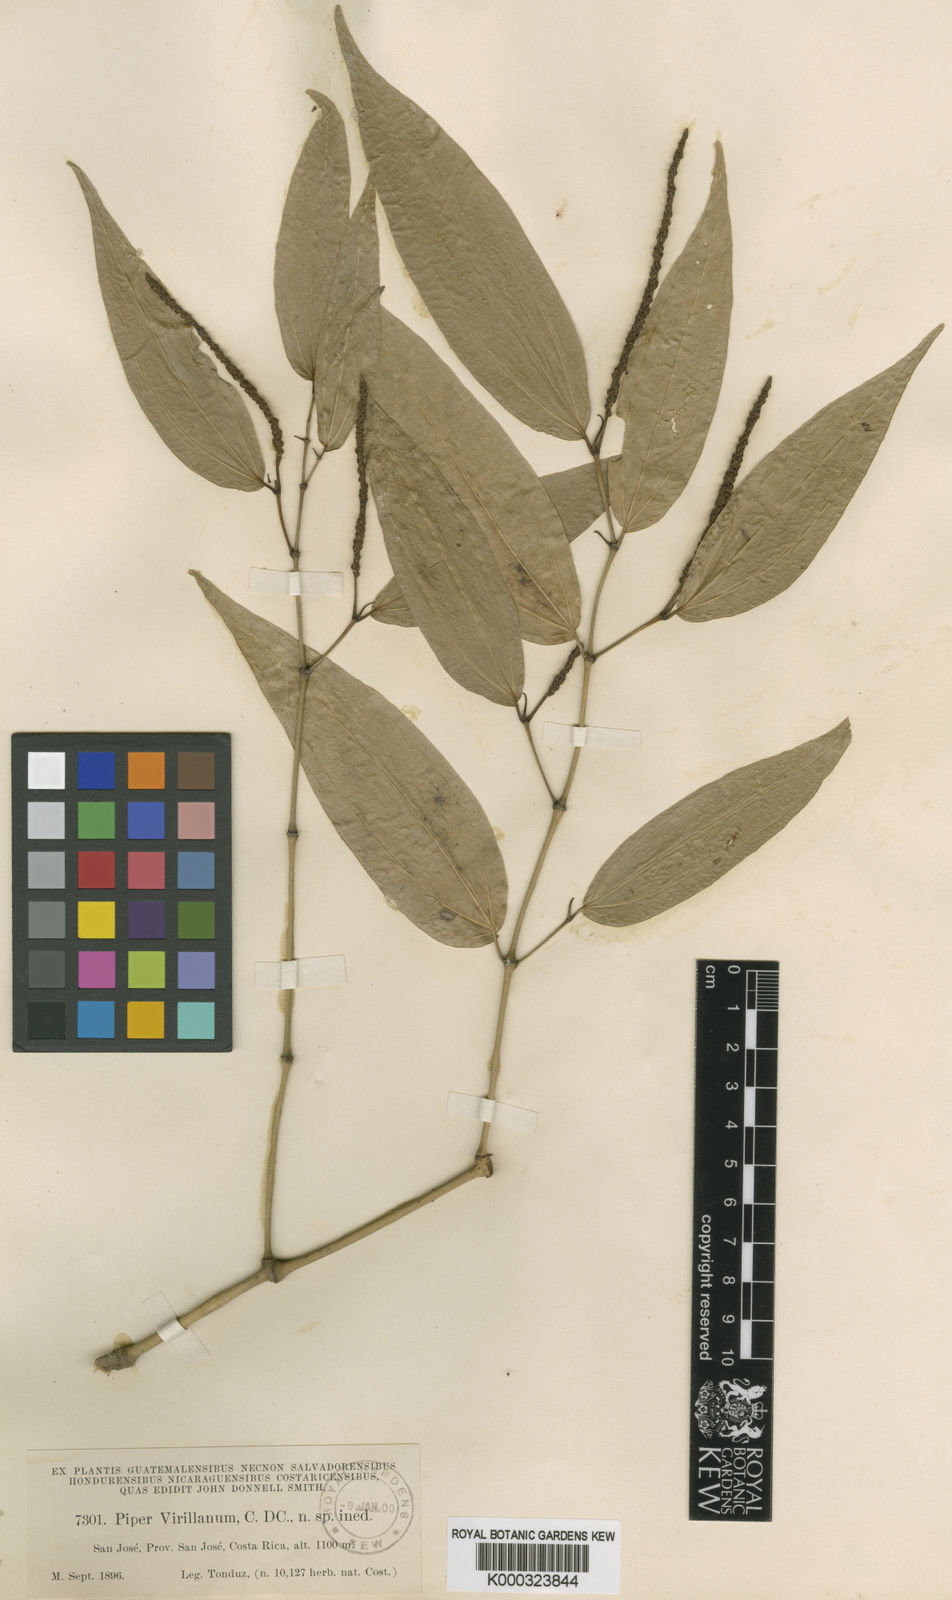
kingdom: Plantae
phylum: Tracheophyta
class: Magnoliopsida
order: Piperales
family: Piperaceae
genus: Piper
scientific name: Piper uhdei
